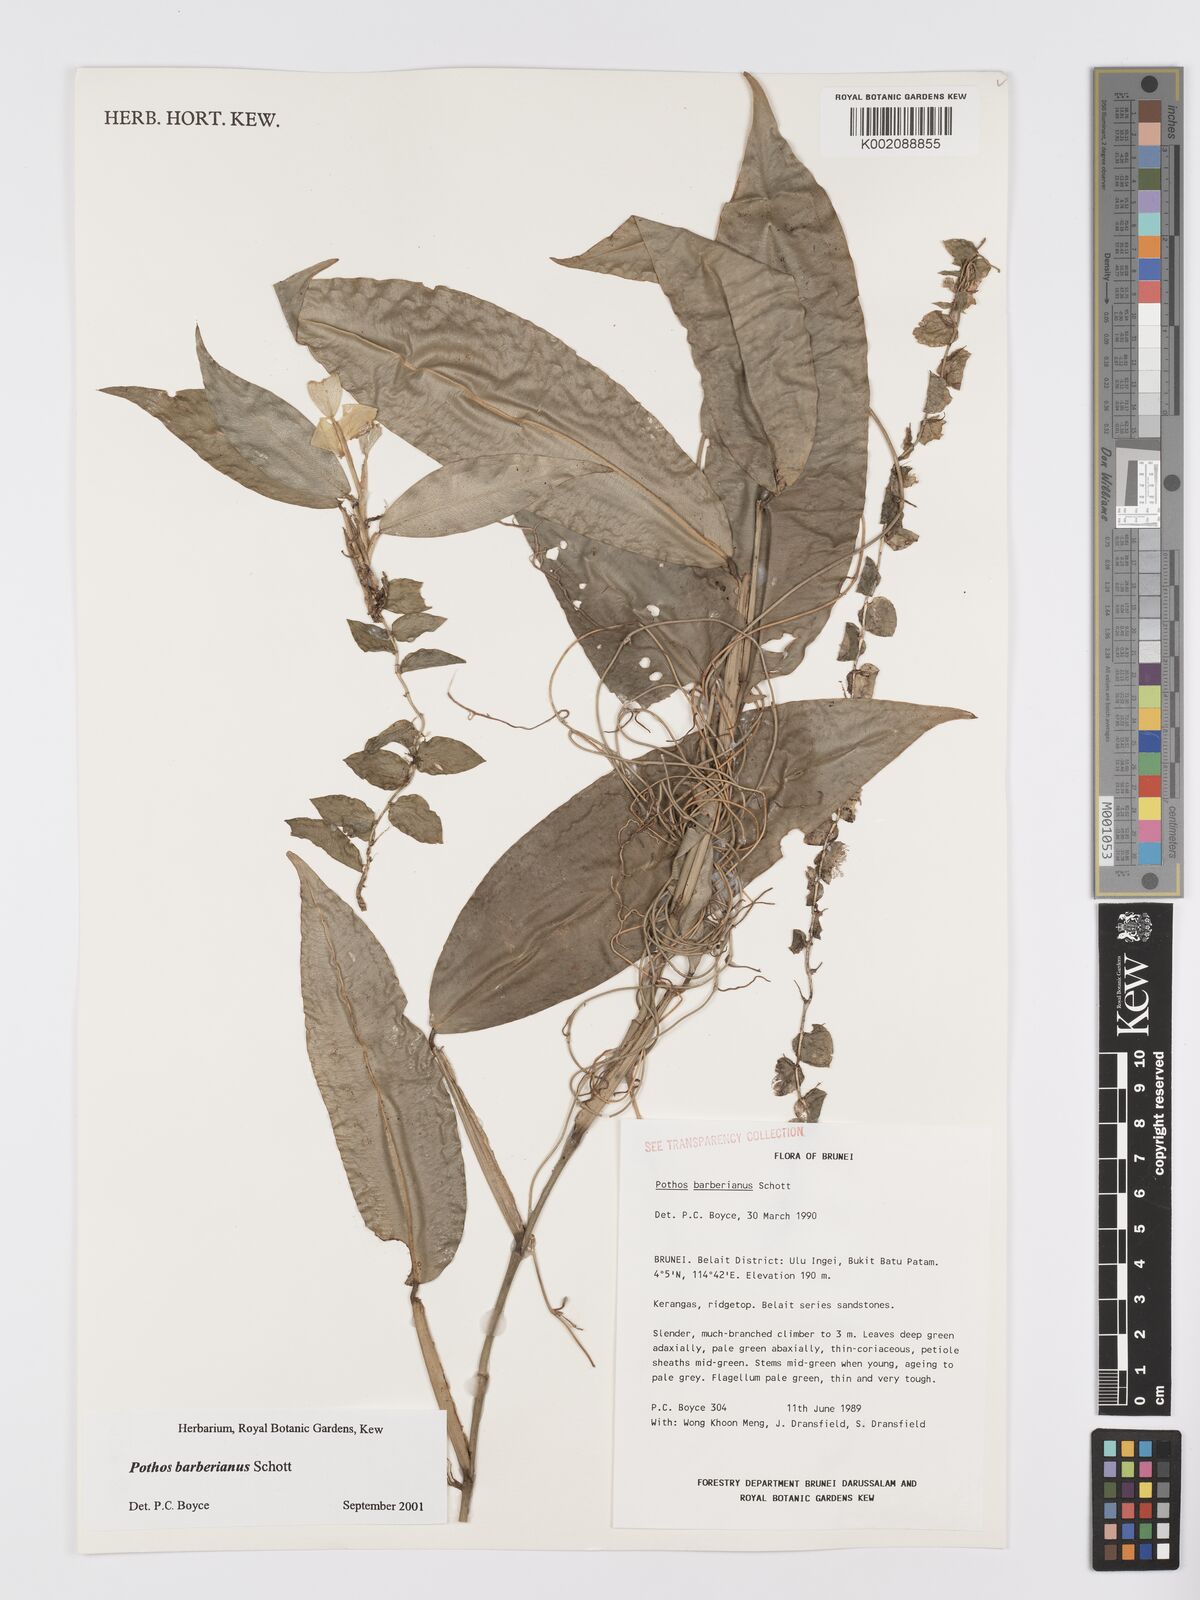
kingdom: Plantae
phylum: Tracheophyta
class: Liliopsida
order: Alismatales
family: Araceae
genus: Pothos
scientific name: Pothos barberianus
